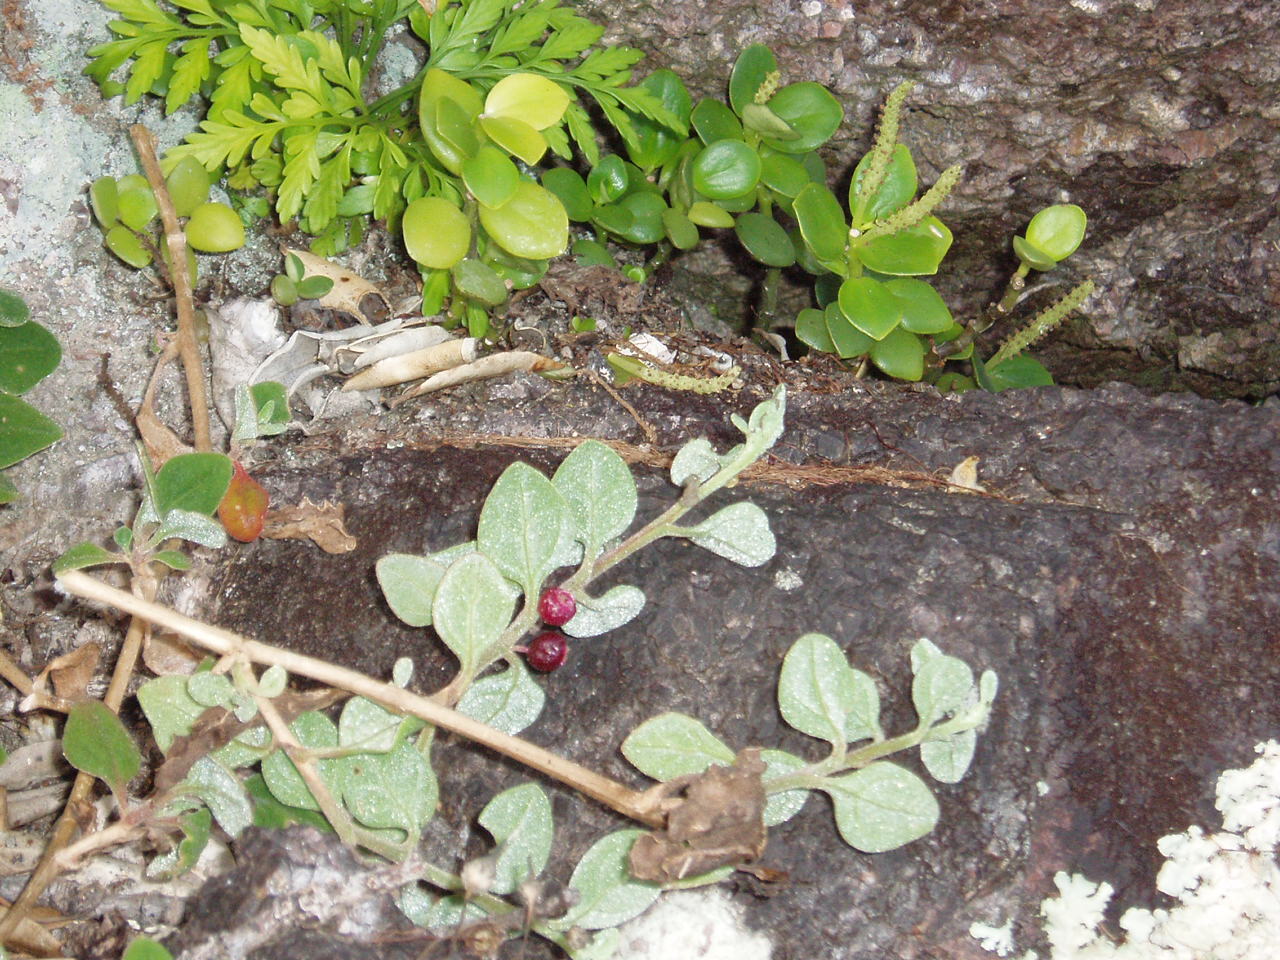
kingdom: Plantae
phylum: Tracheophyta
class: Magnoliopsida
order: Caryophyllales
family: Aizoaceae
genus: Tetragonia
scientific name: Tetragonia implexicoma
